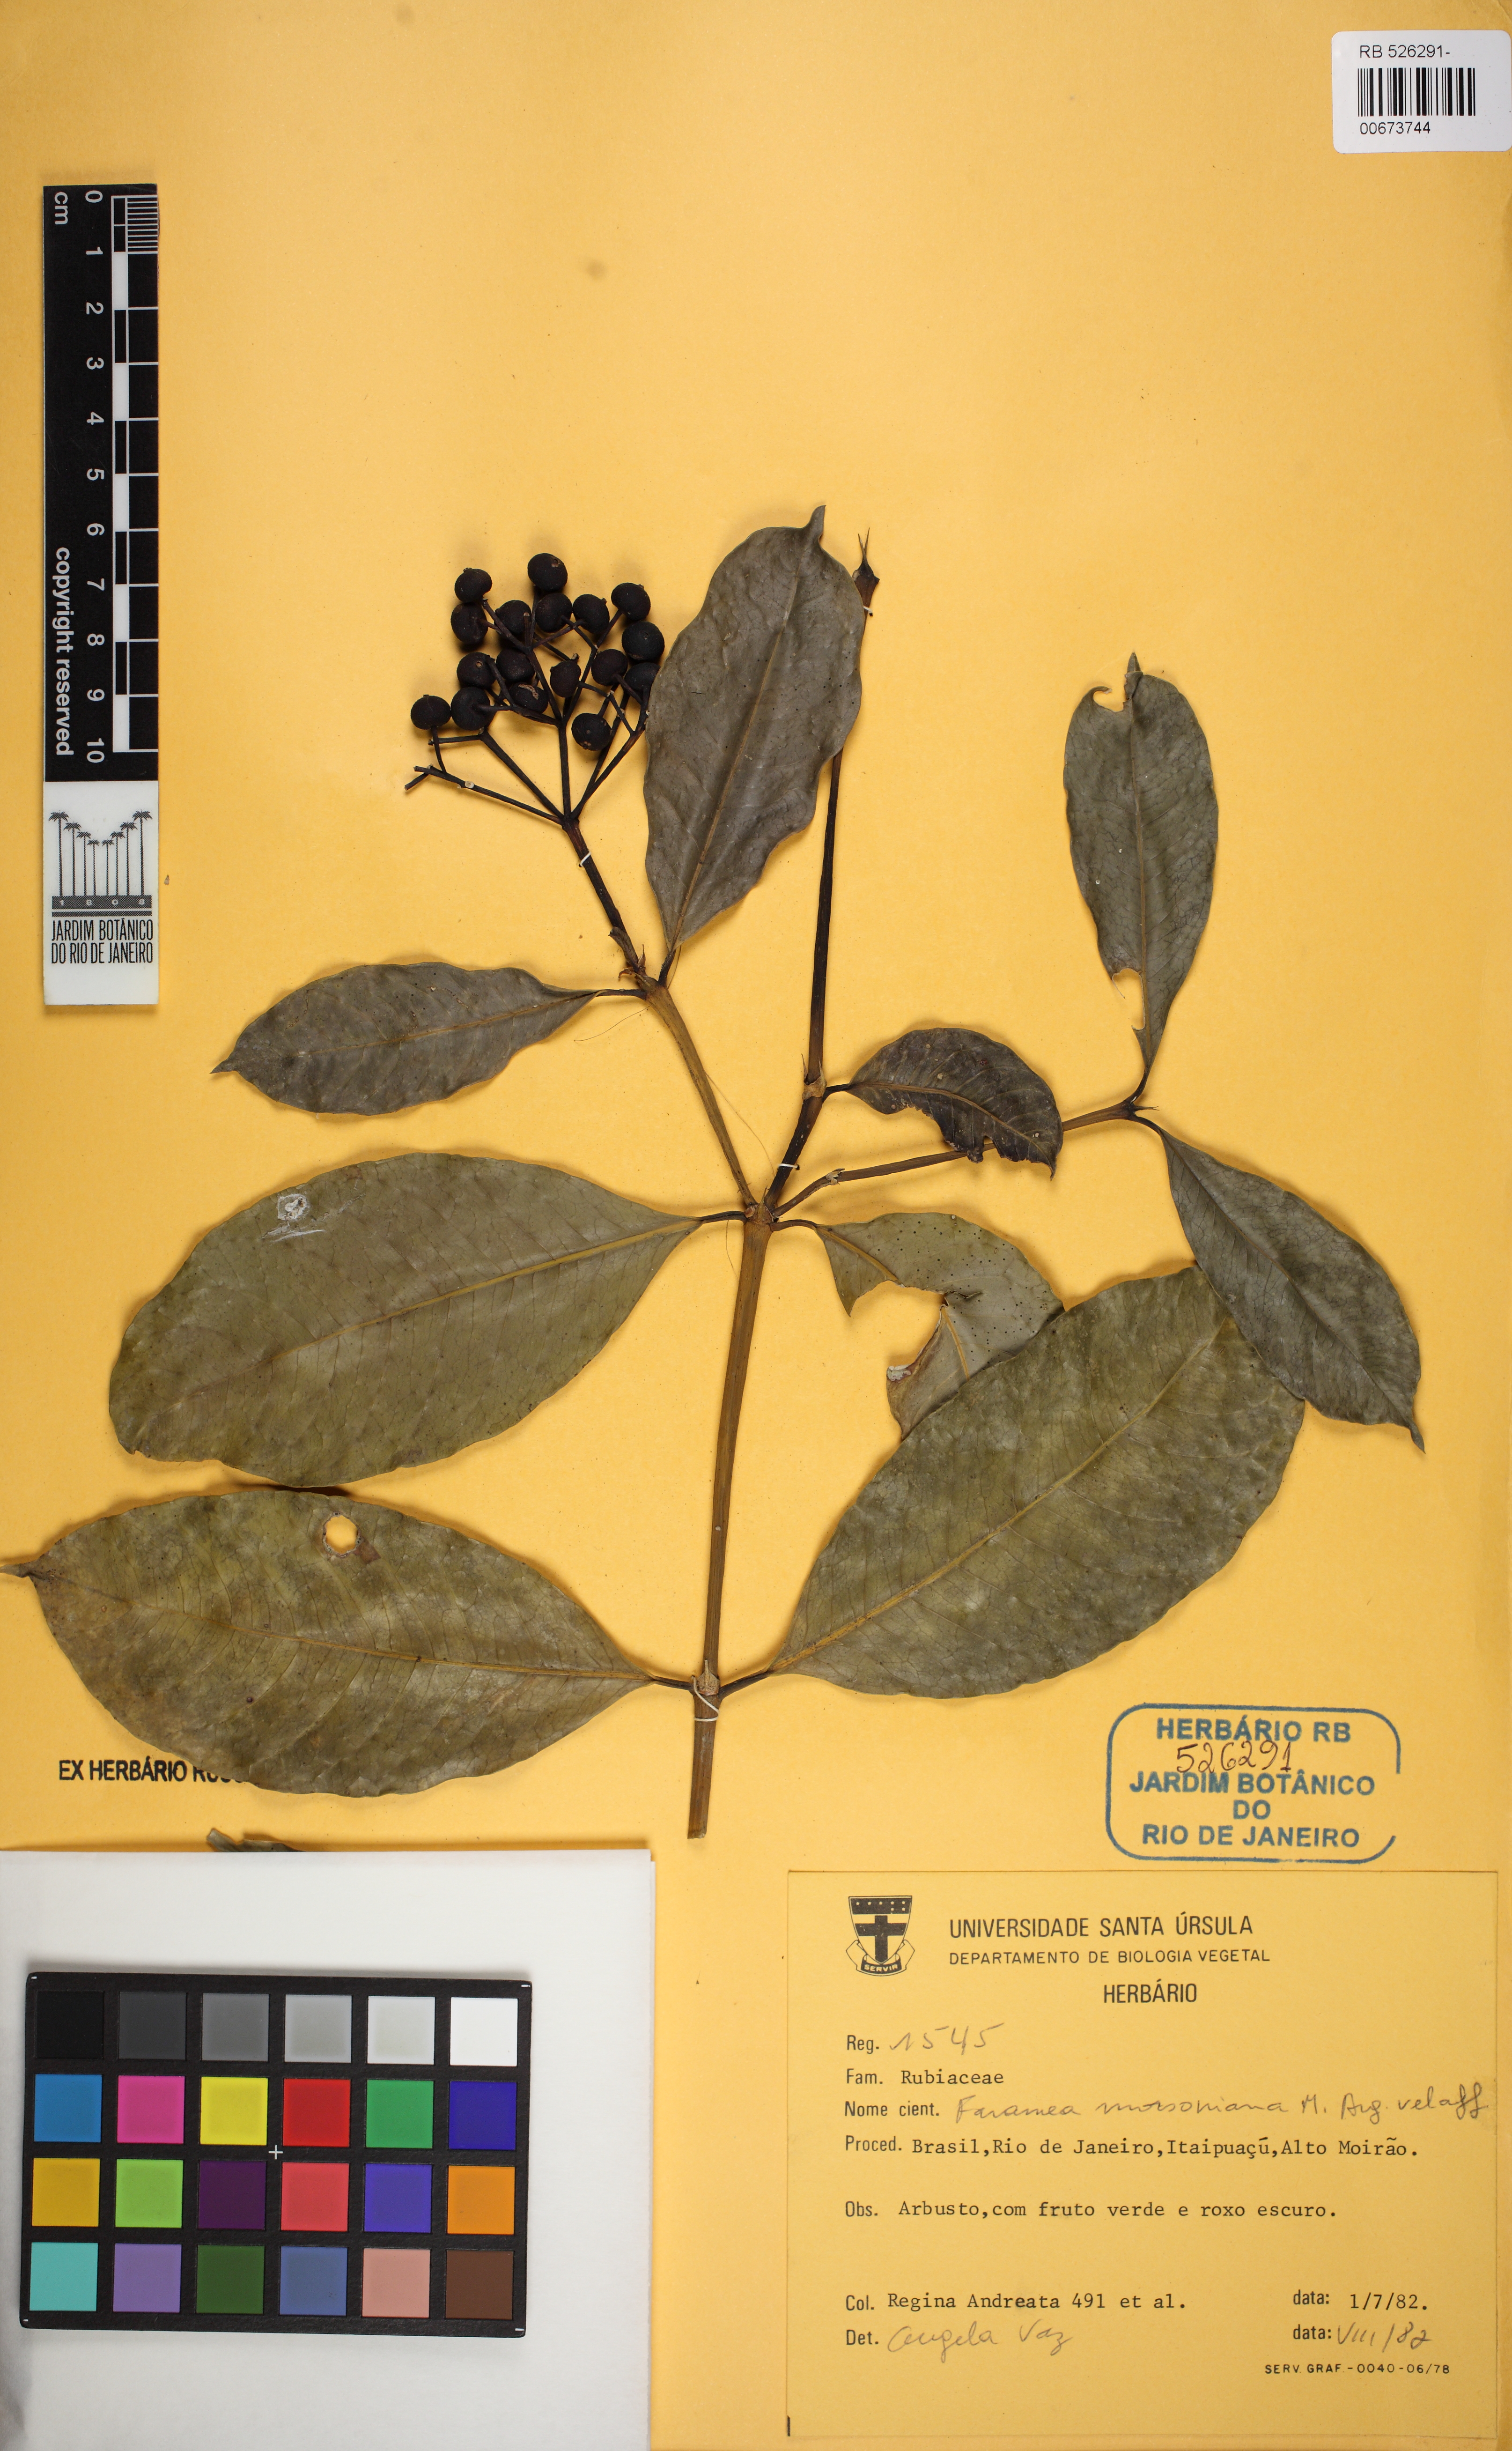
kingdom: Plantae
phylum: Tracheophyta
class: Magnoliopsida
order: Gentianales
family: Rubiaceae
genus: Faramea
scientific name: Faramea stipulacea
